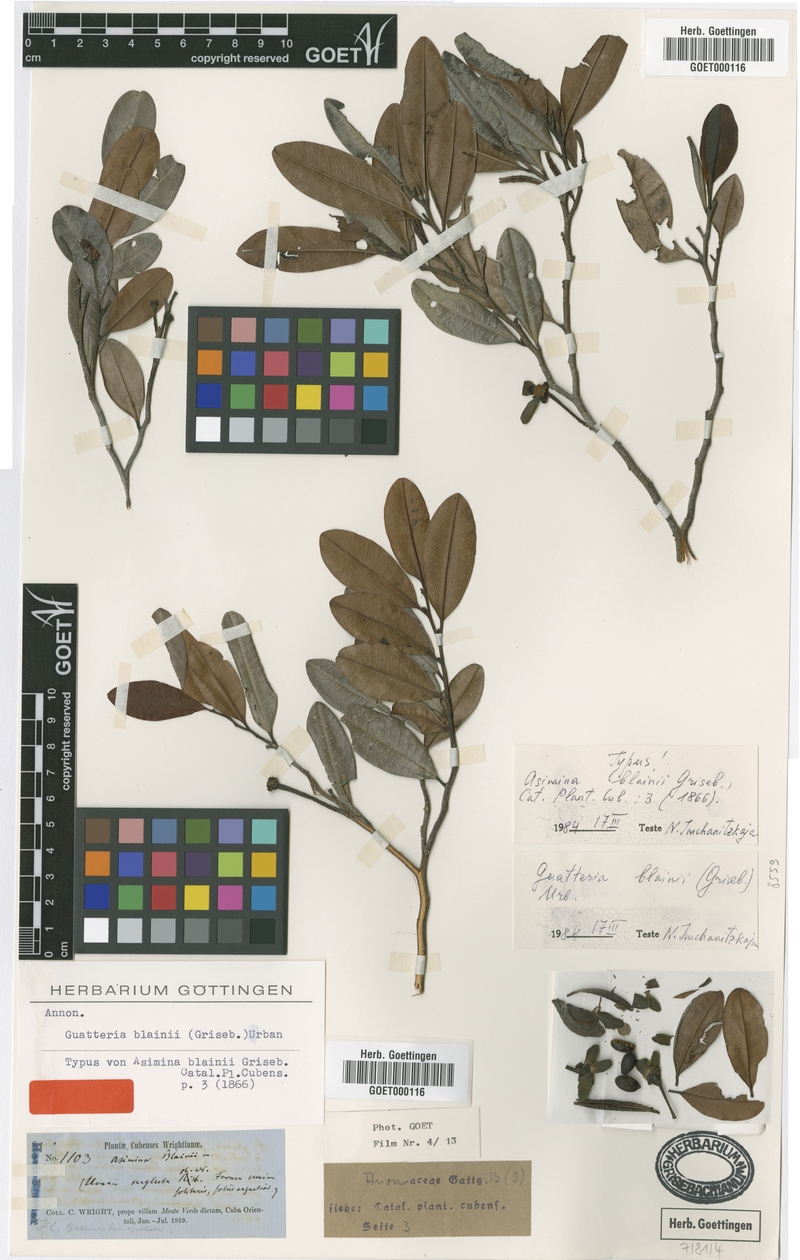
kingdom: Plantae
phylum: Tracheophyta
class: Magnoliopsida
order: Magnoliales
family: Annonaceae
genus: Guatteria
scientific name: Guatteria blainii
